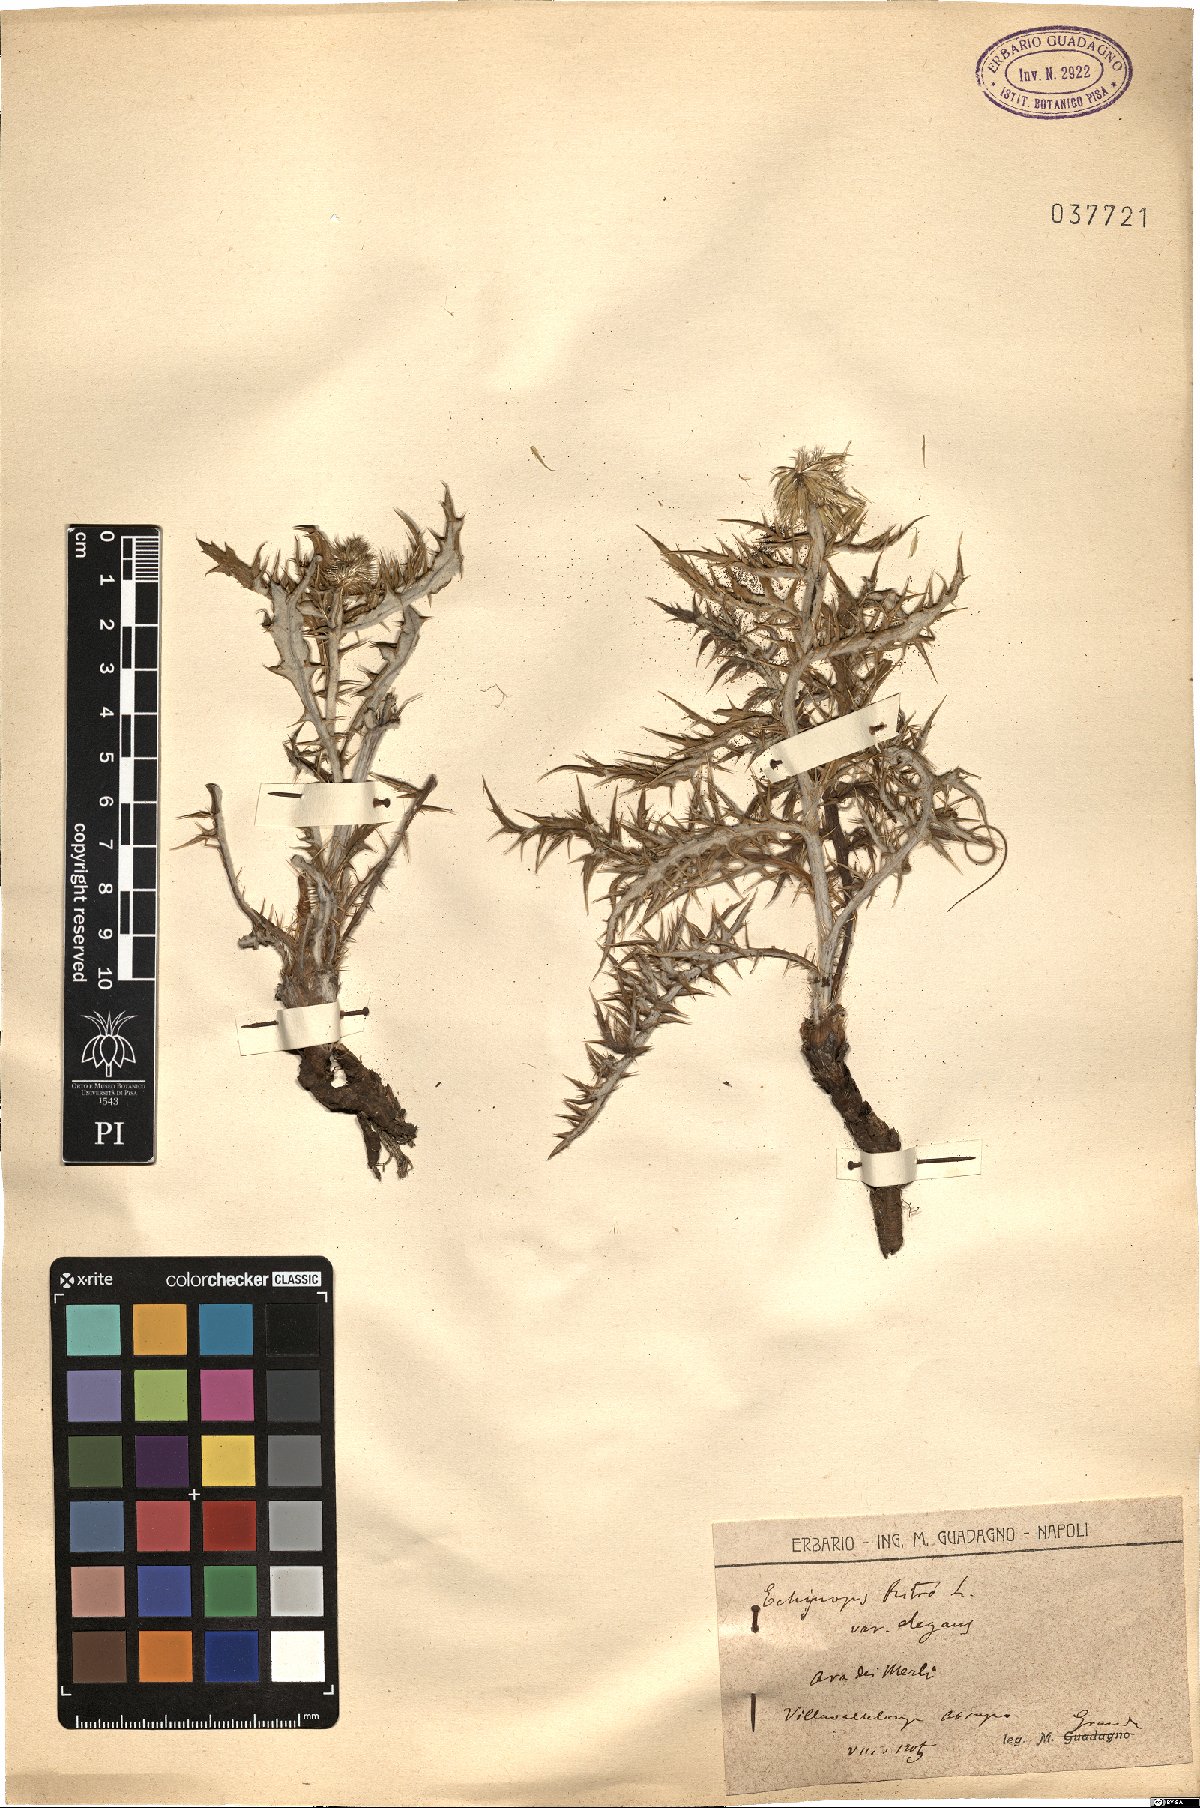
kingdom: Plantae
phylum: Tracheophyta
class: Magnoliopsida
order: Asterales
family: Asteraceae
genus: Echinops
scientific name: Echinops ritro
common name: Globe thistle
